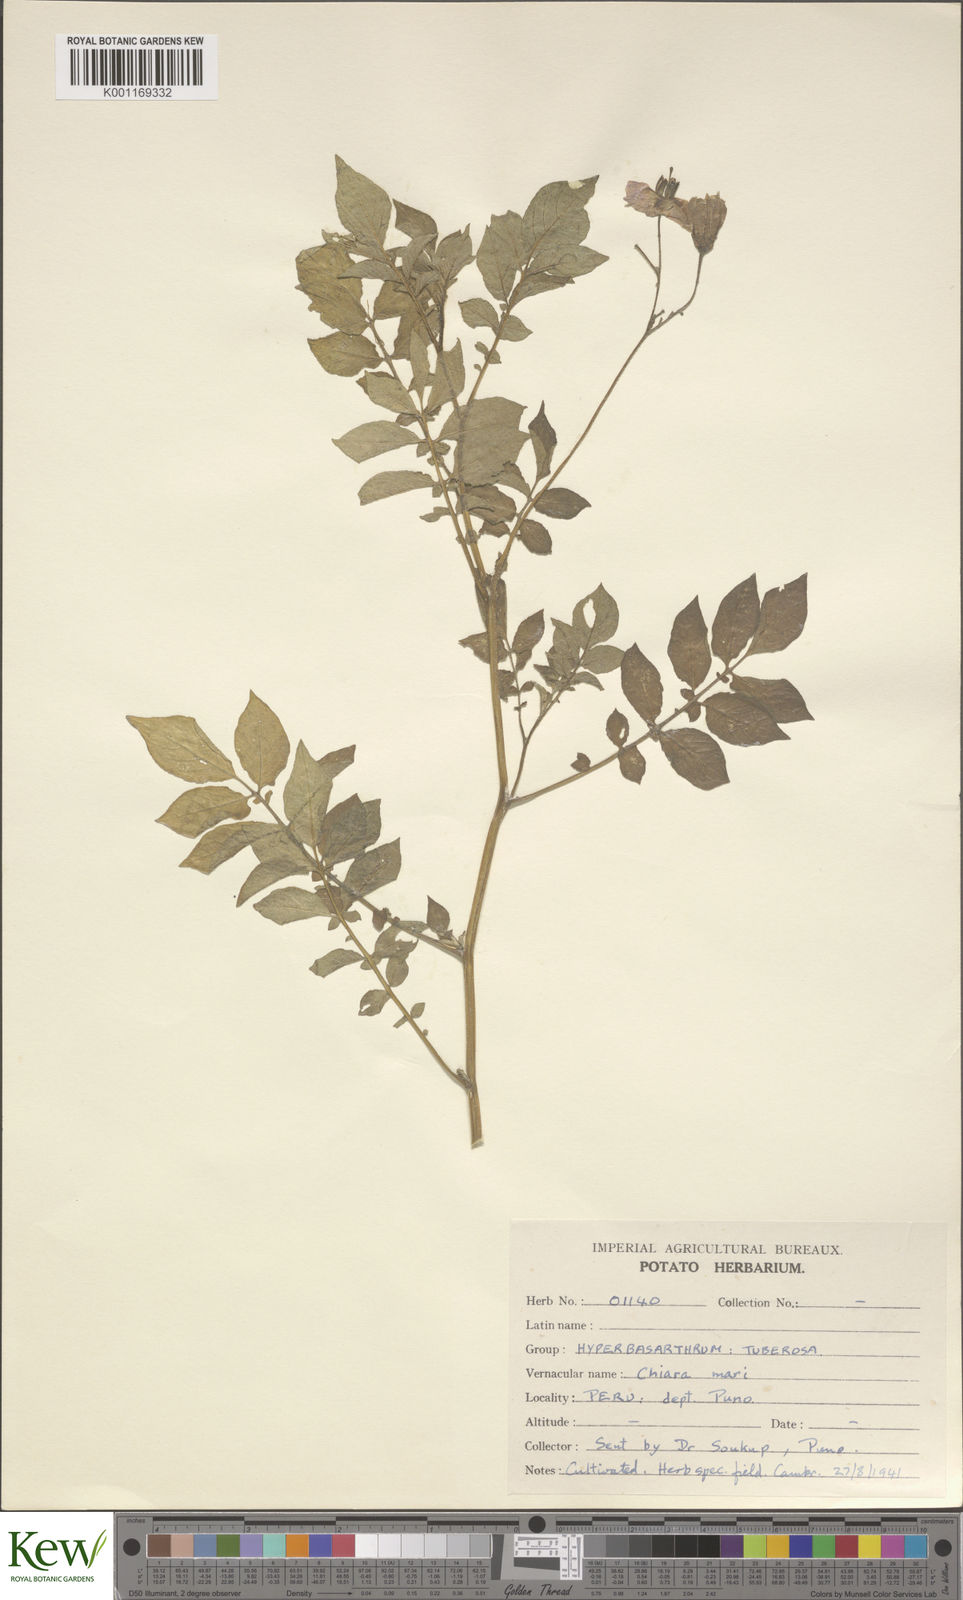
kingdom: Plantae
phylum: Tracheophyta
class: Magnoliopsida
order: Solanales
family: Solanaceae
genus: Solanum
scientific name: Solanum chaucha
